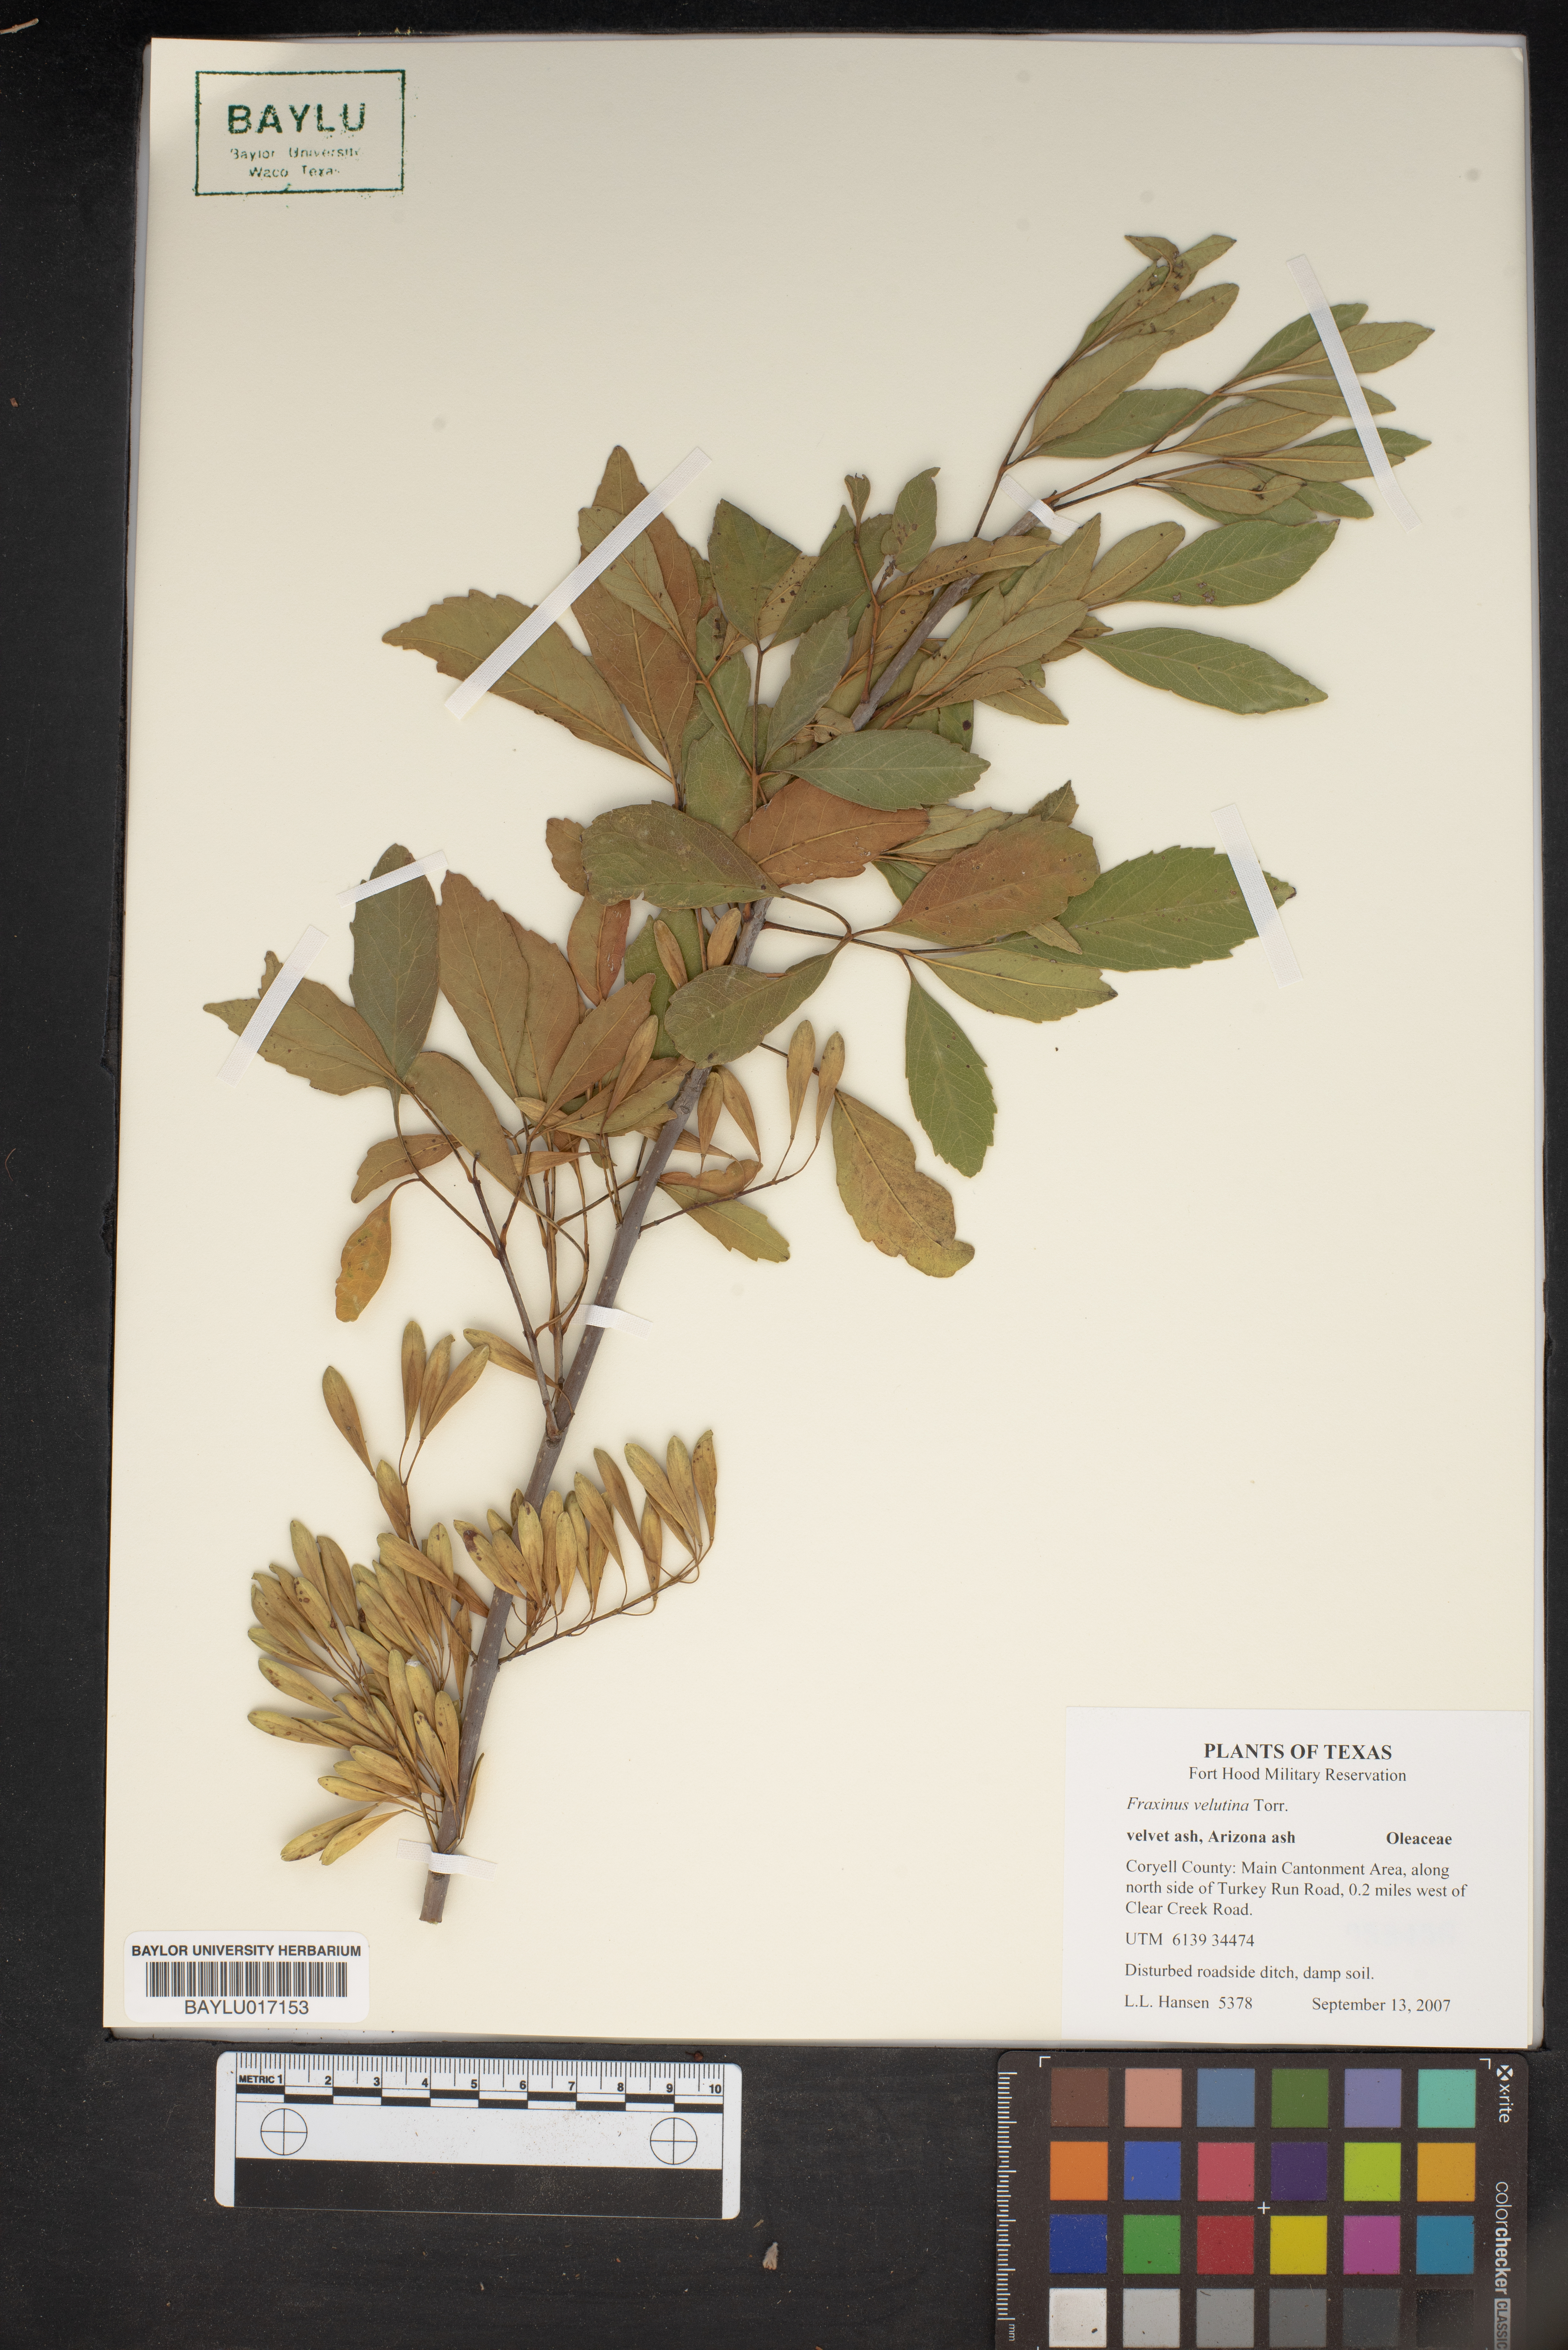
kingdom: Plantae
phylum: Tracheophyta
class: Magnoliopsida
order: Lamiales
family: Oleaceae
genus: Fraxinus
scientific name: Fraxinus velutina
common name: Arizon ash
